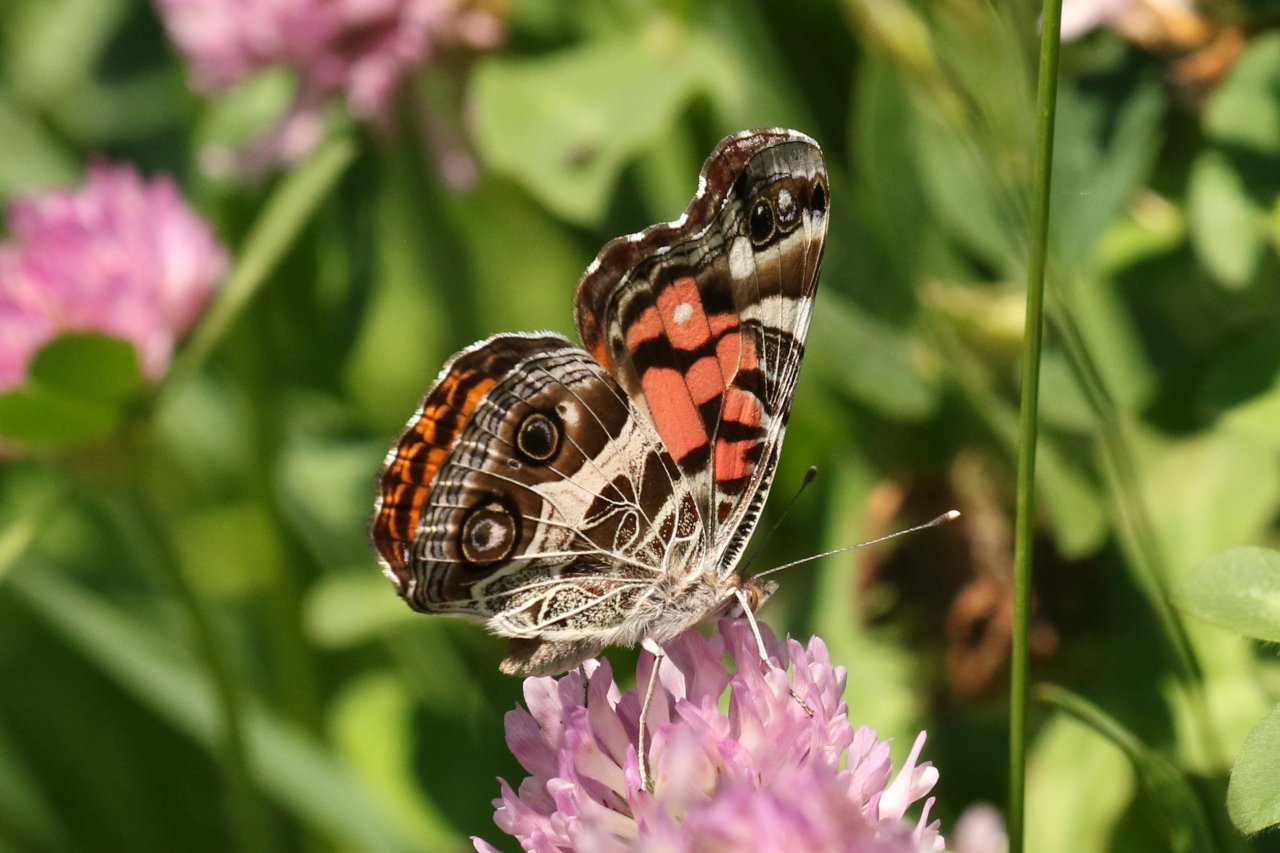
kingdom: Animalia
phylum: Arthropoda
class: Insecta
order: Lepidoptera
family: Nymphalidae
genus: Vanessa
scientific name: Vanessa virginiensis
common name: American Lady
